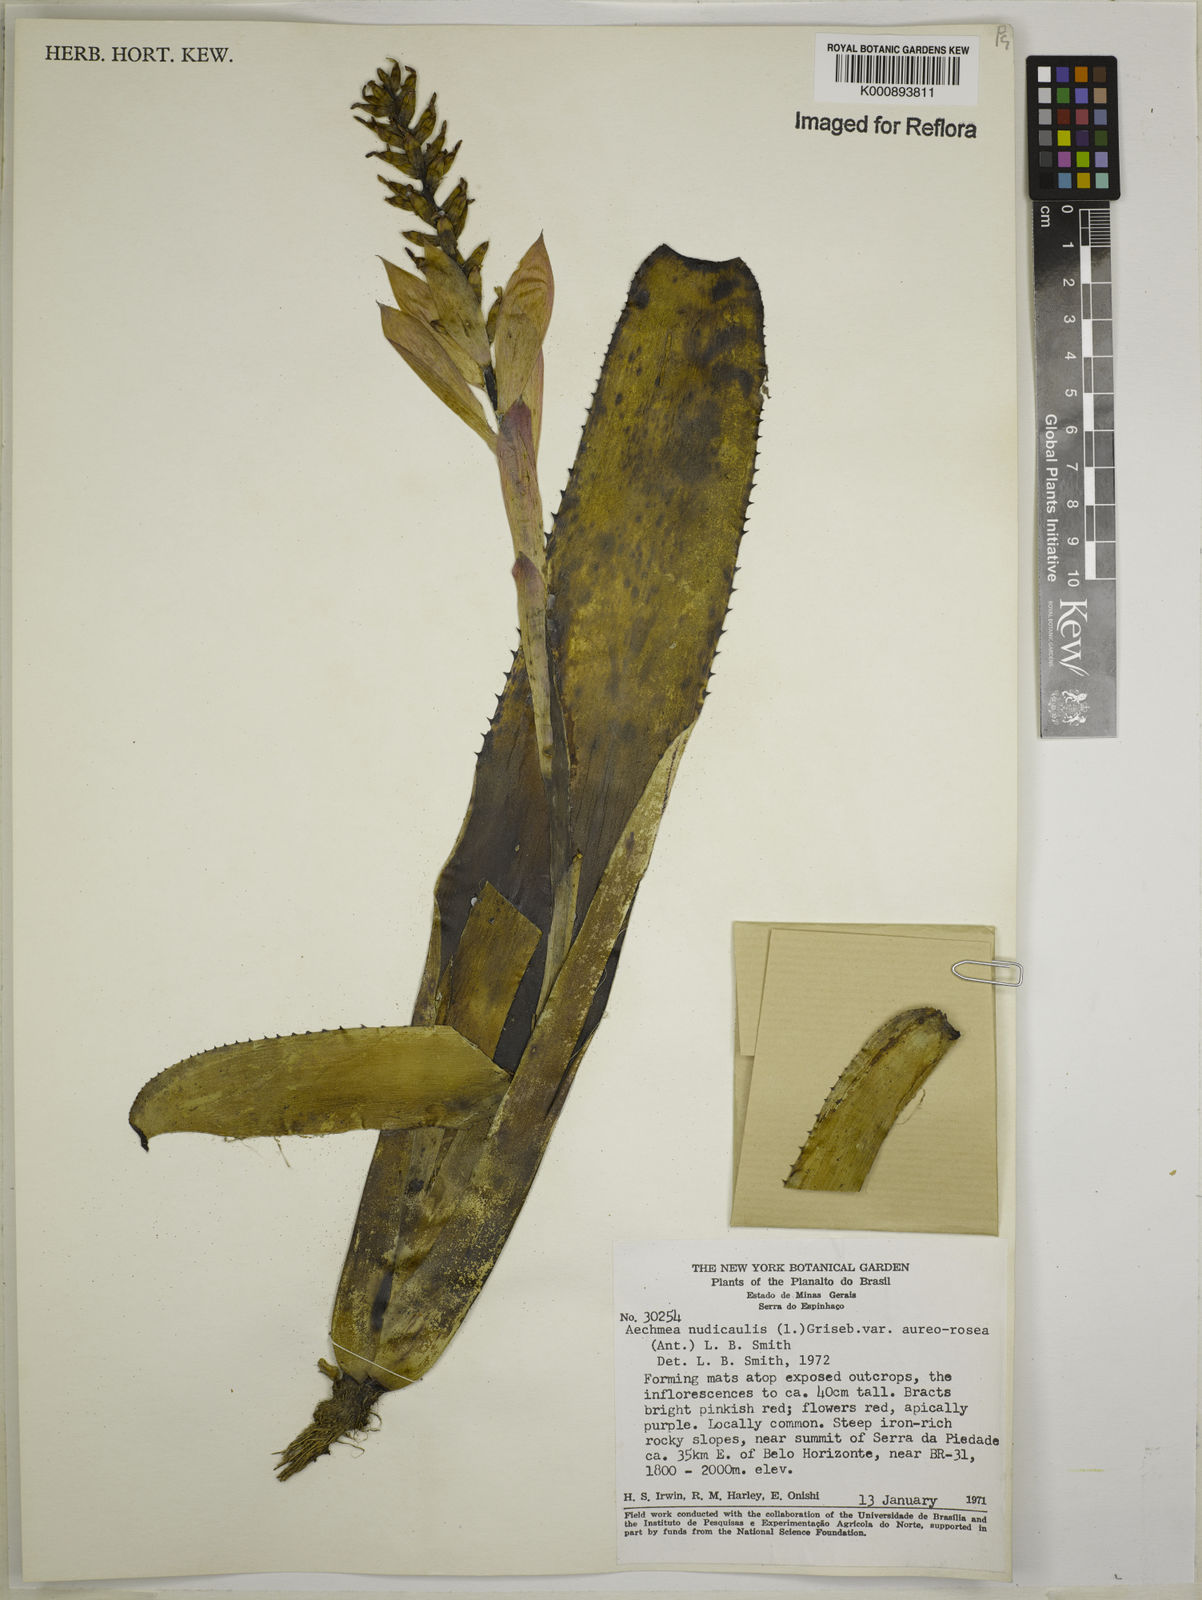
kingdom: Plantae
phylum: Tracheophyta
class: Liliopsida
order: Poales
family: Bromeliaceae
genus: Aechmea
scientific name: Aechmea nudicaulis
